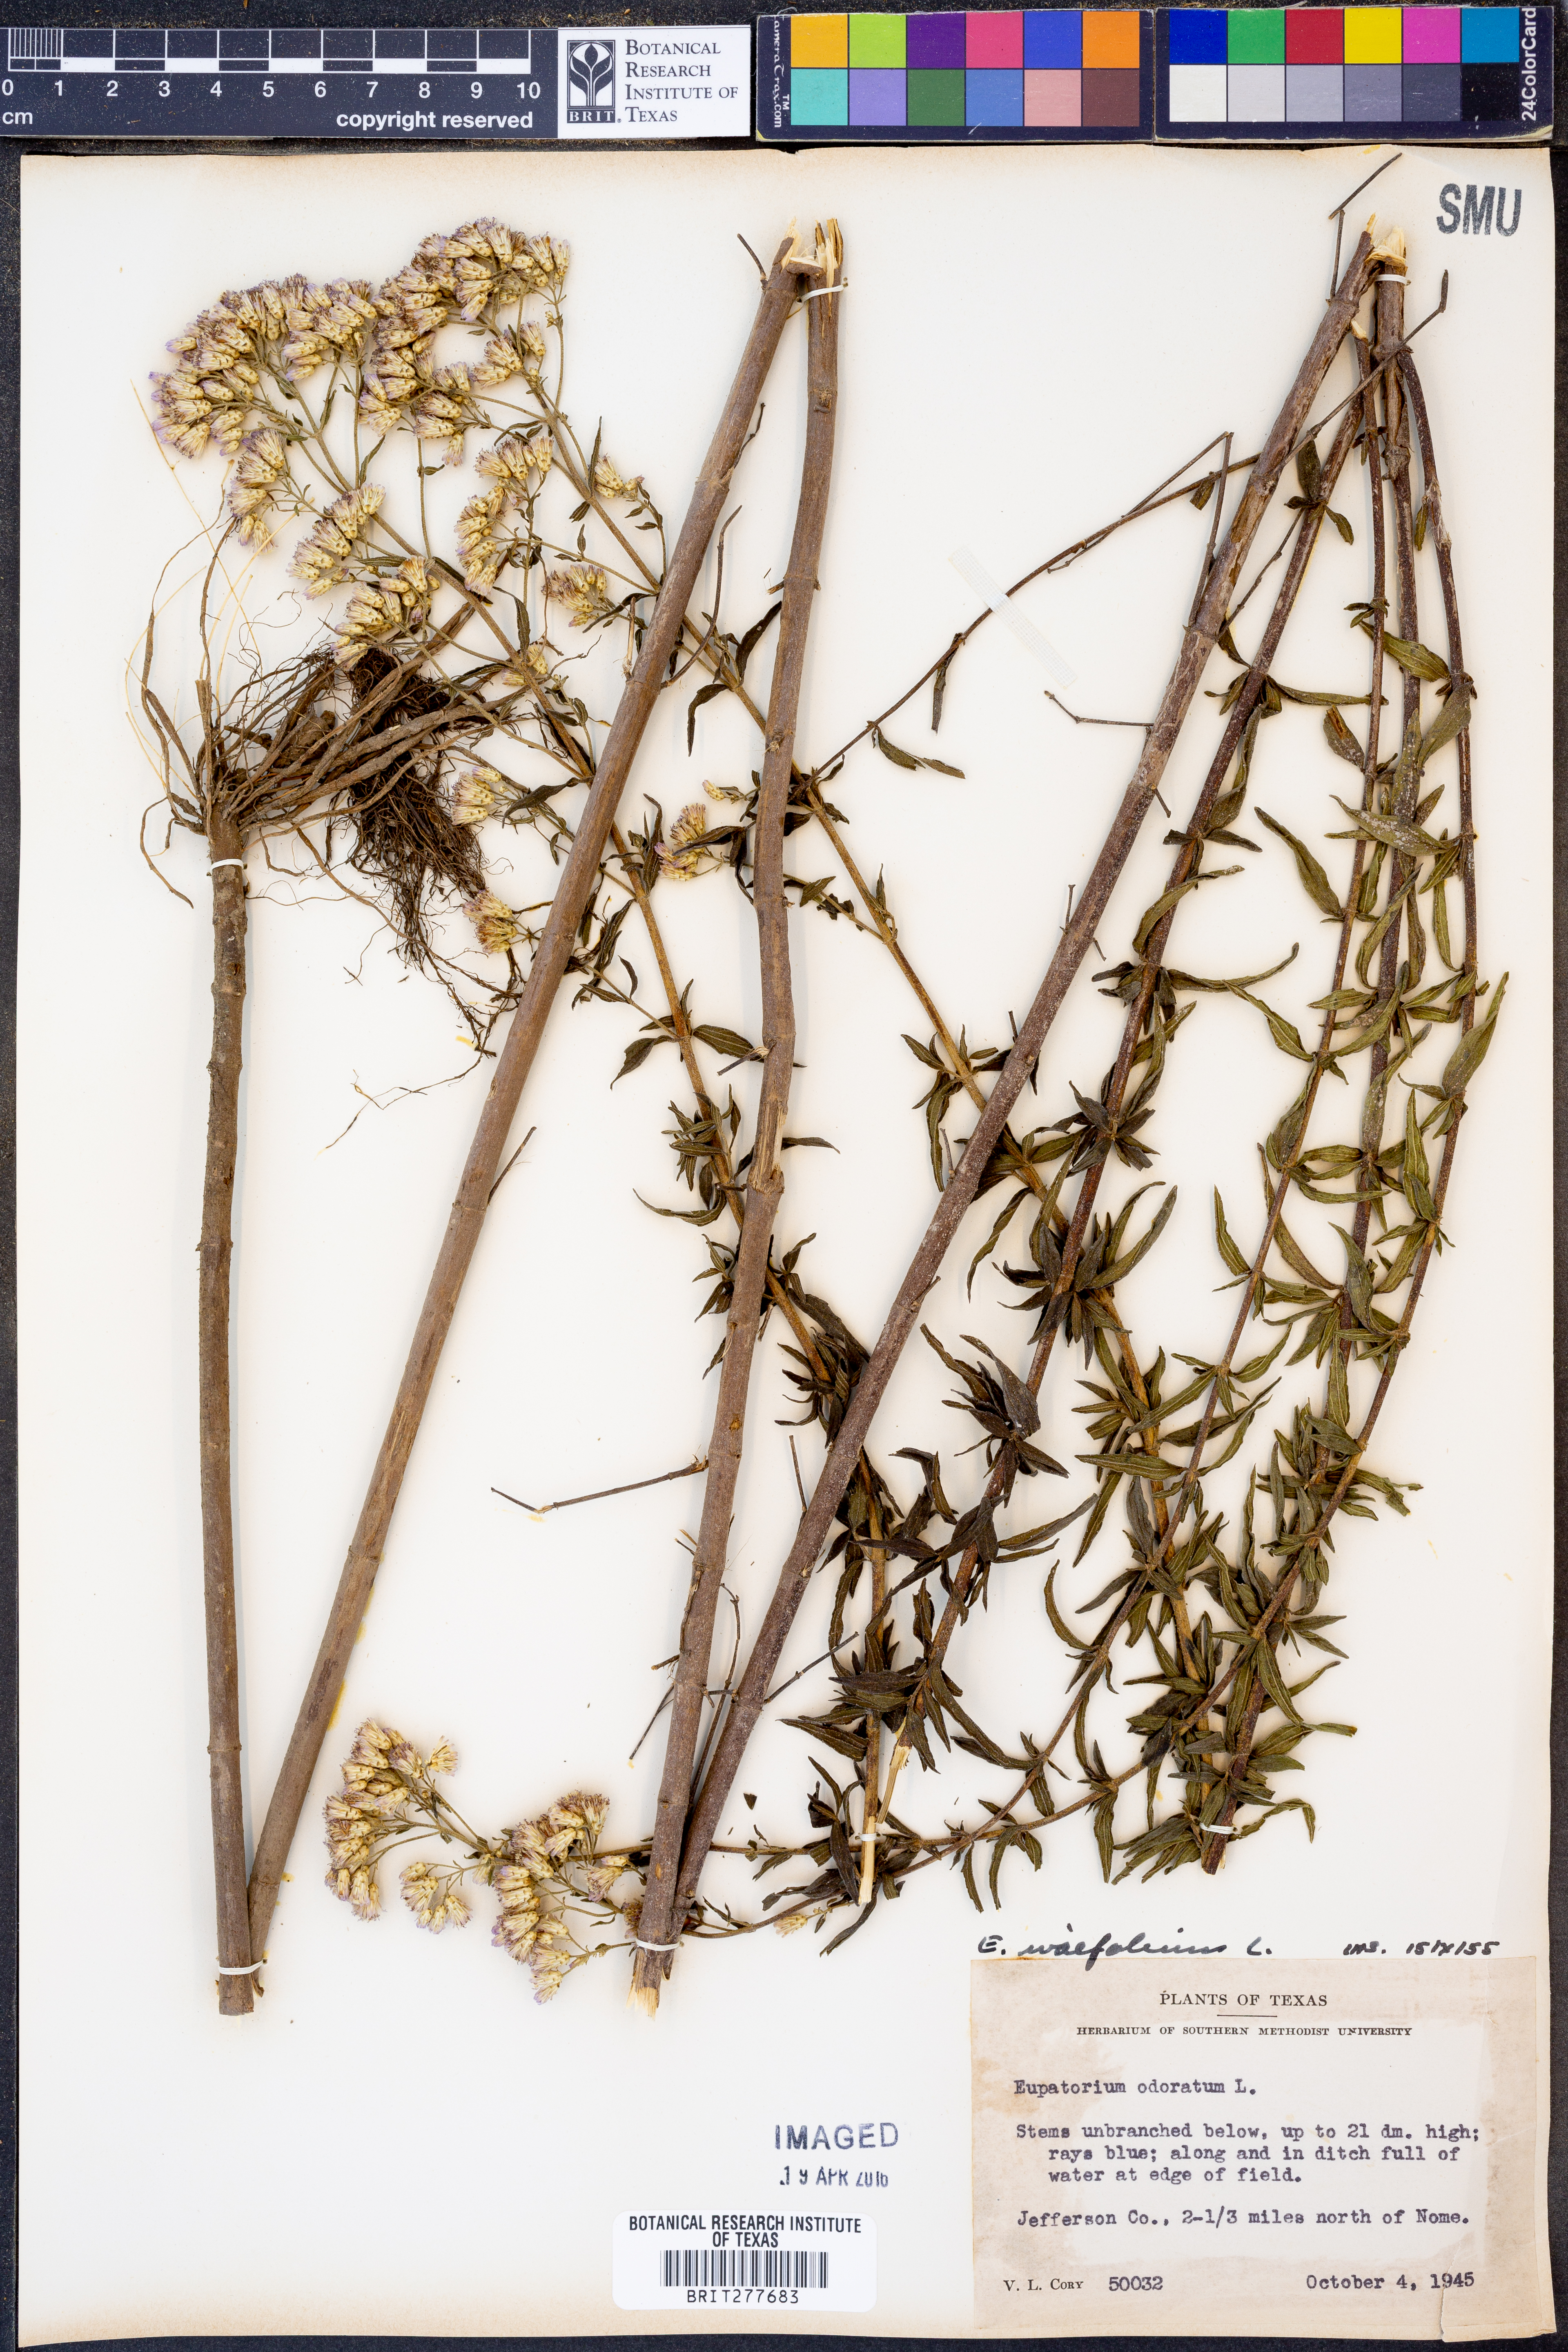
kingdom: Plantae
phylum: Tracheophyta
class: Magnoliopsida
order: Asterales
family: Asteraceae
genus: Chromolaena
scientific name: Chromolaena ivaefolia
